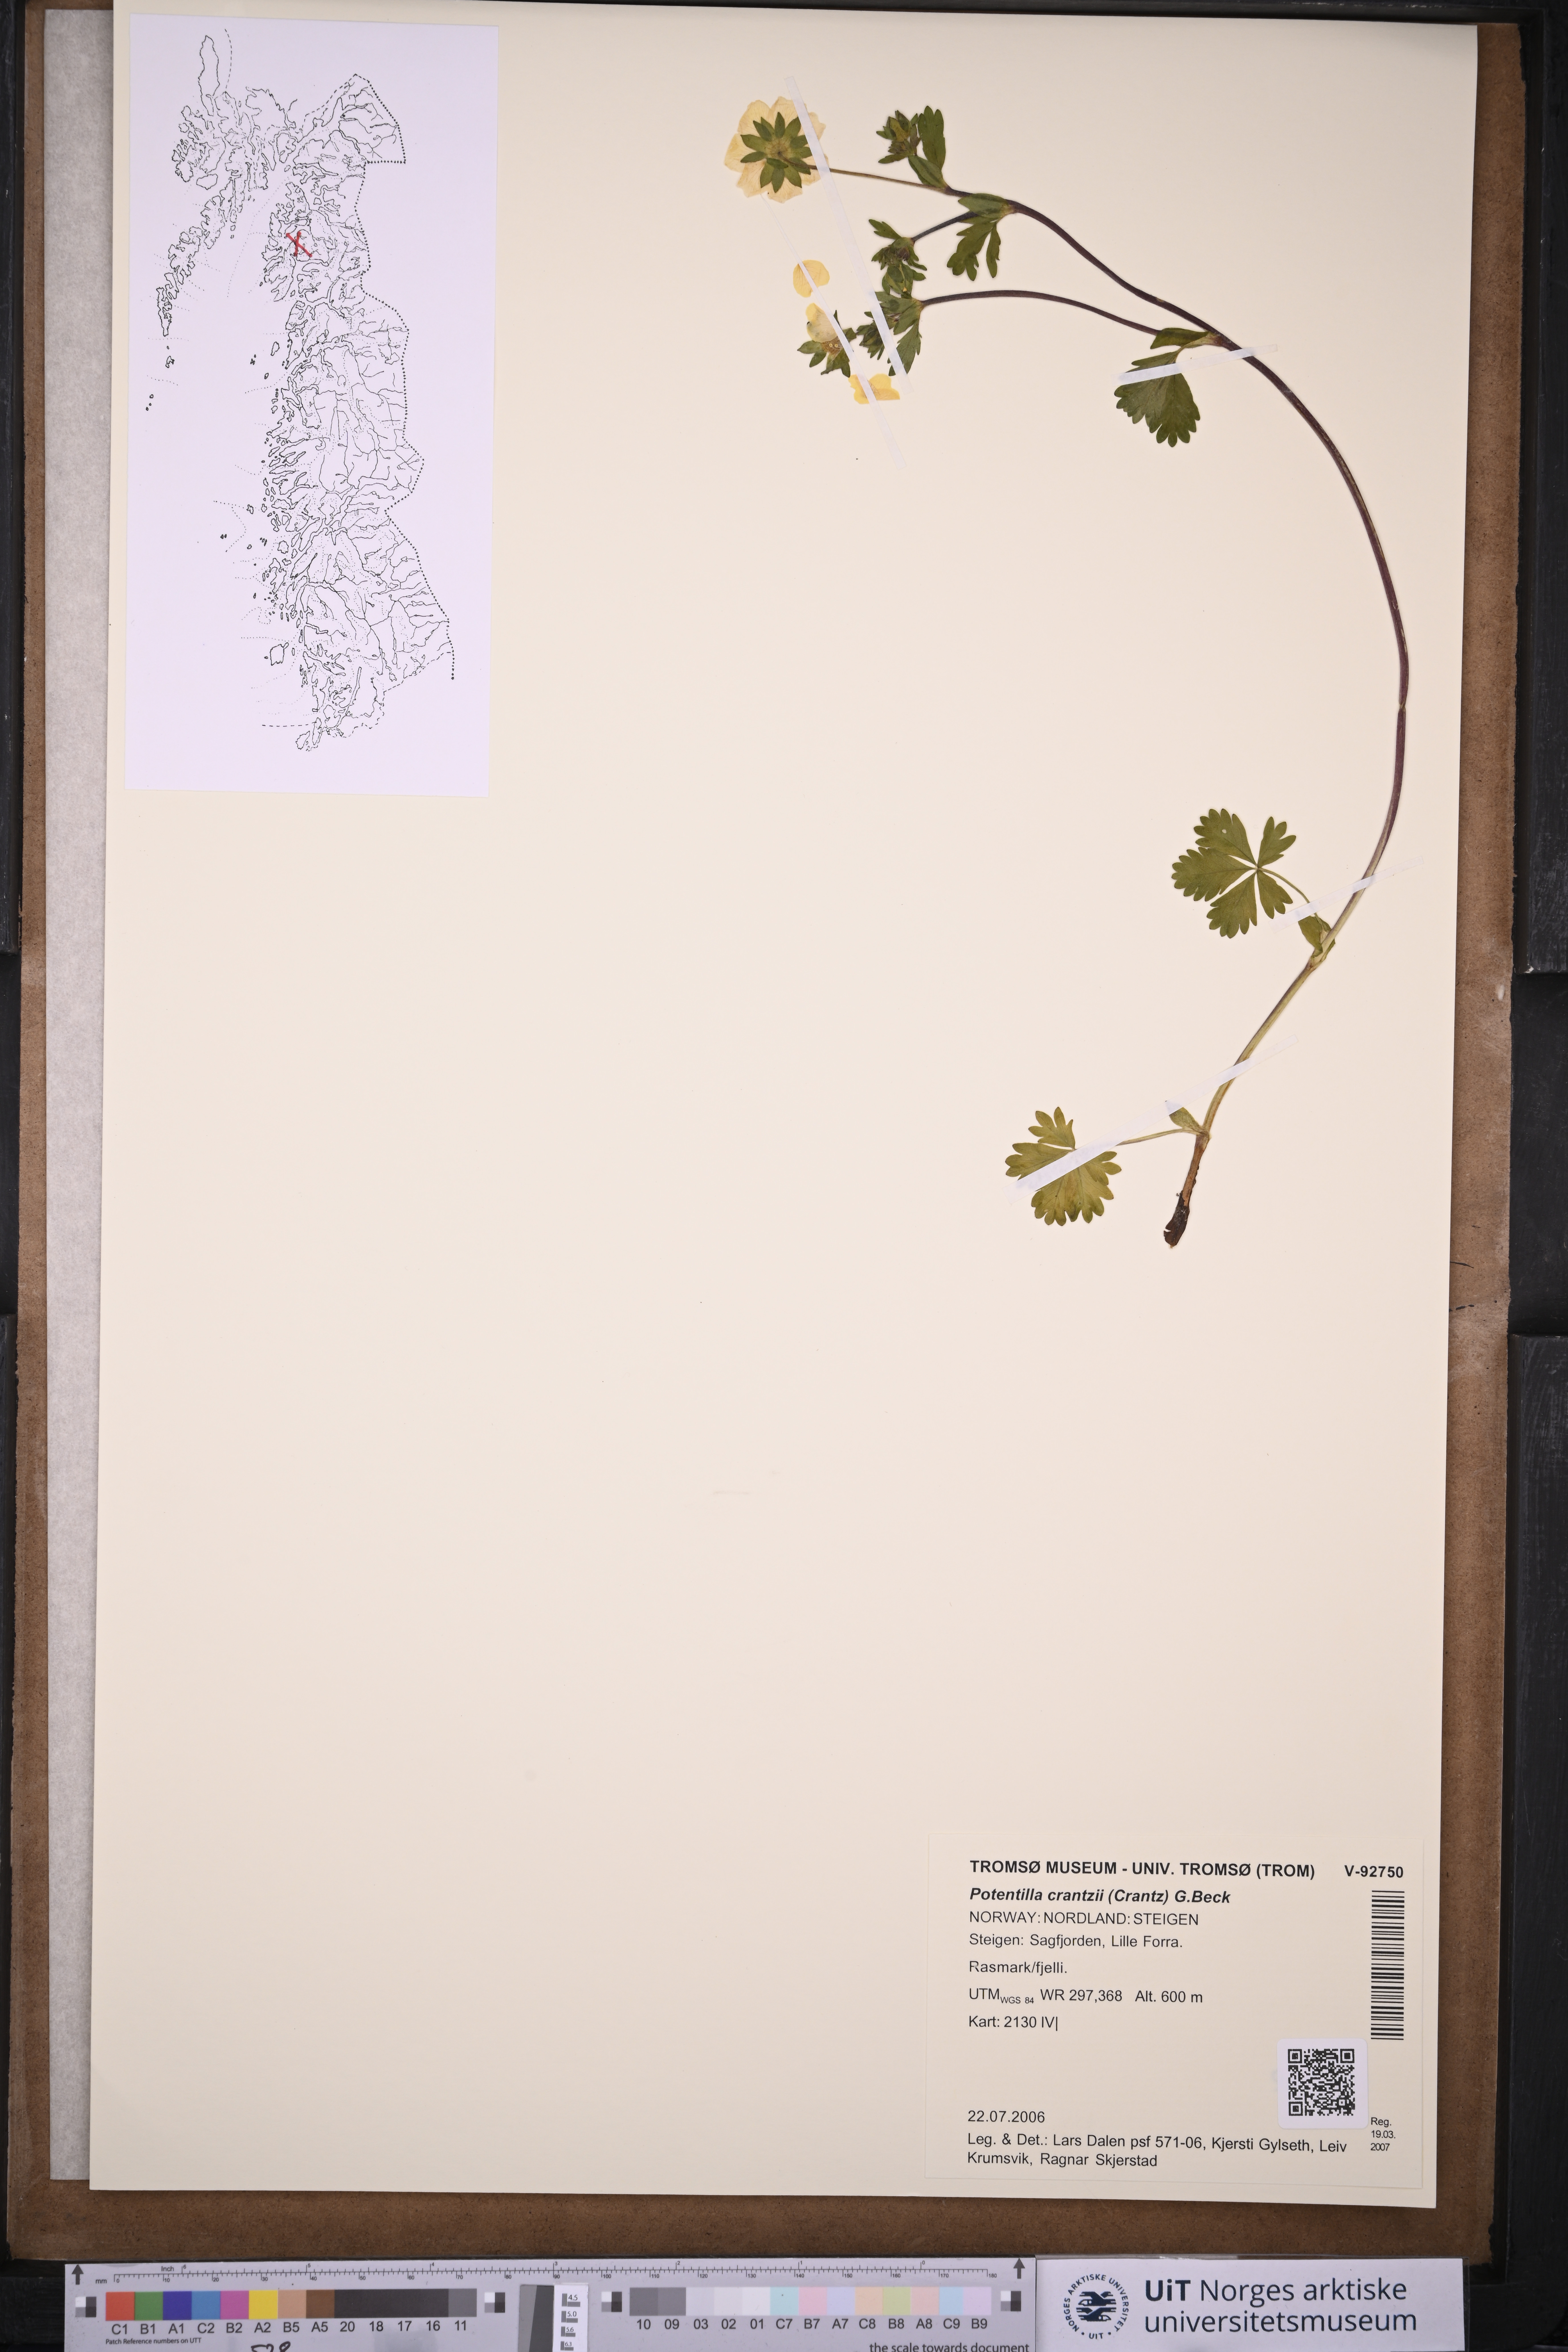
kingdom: Plantae
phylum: Tracheophyta
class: Magnoliopsida
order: Rosales
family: Rosaceae
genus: Potentilla
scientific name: Potentilla crantzii
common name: Alpine cinquefoil
